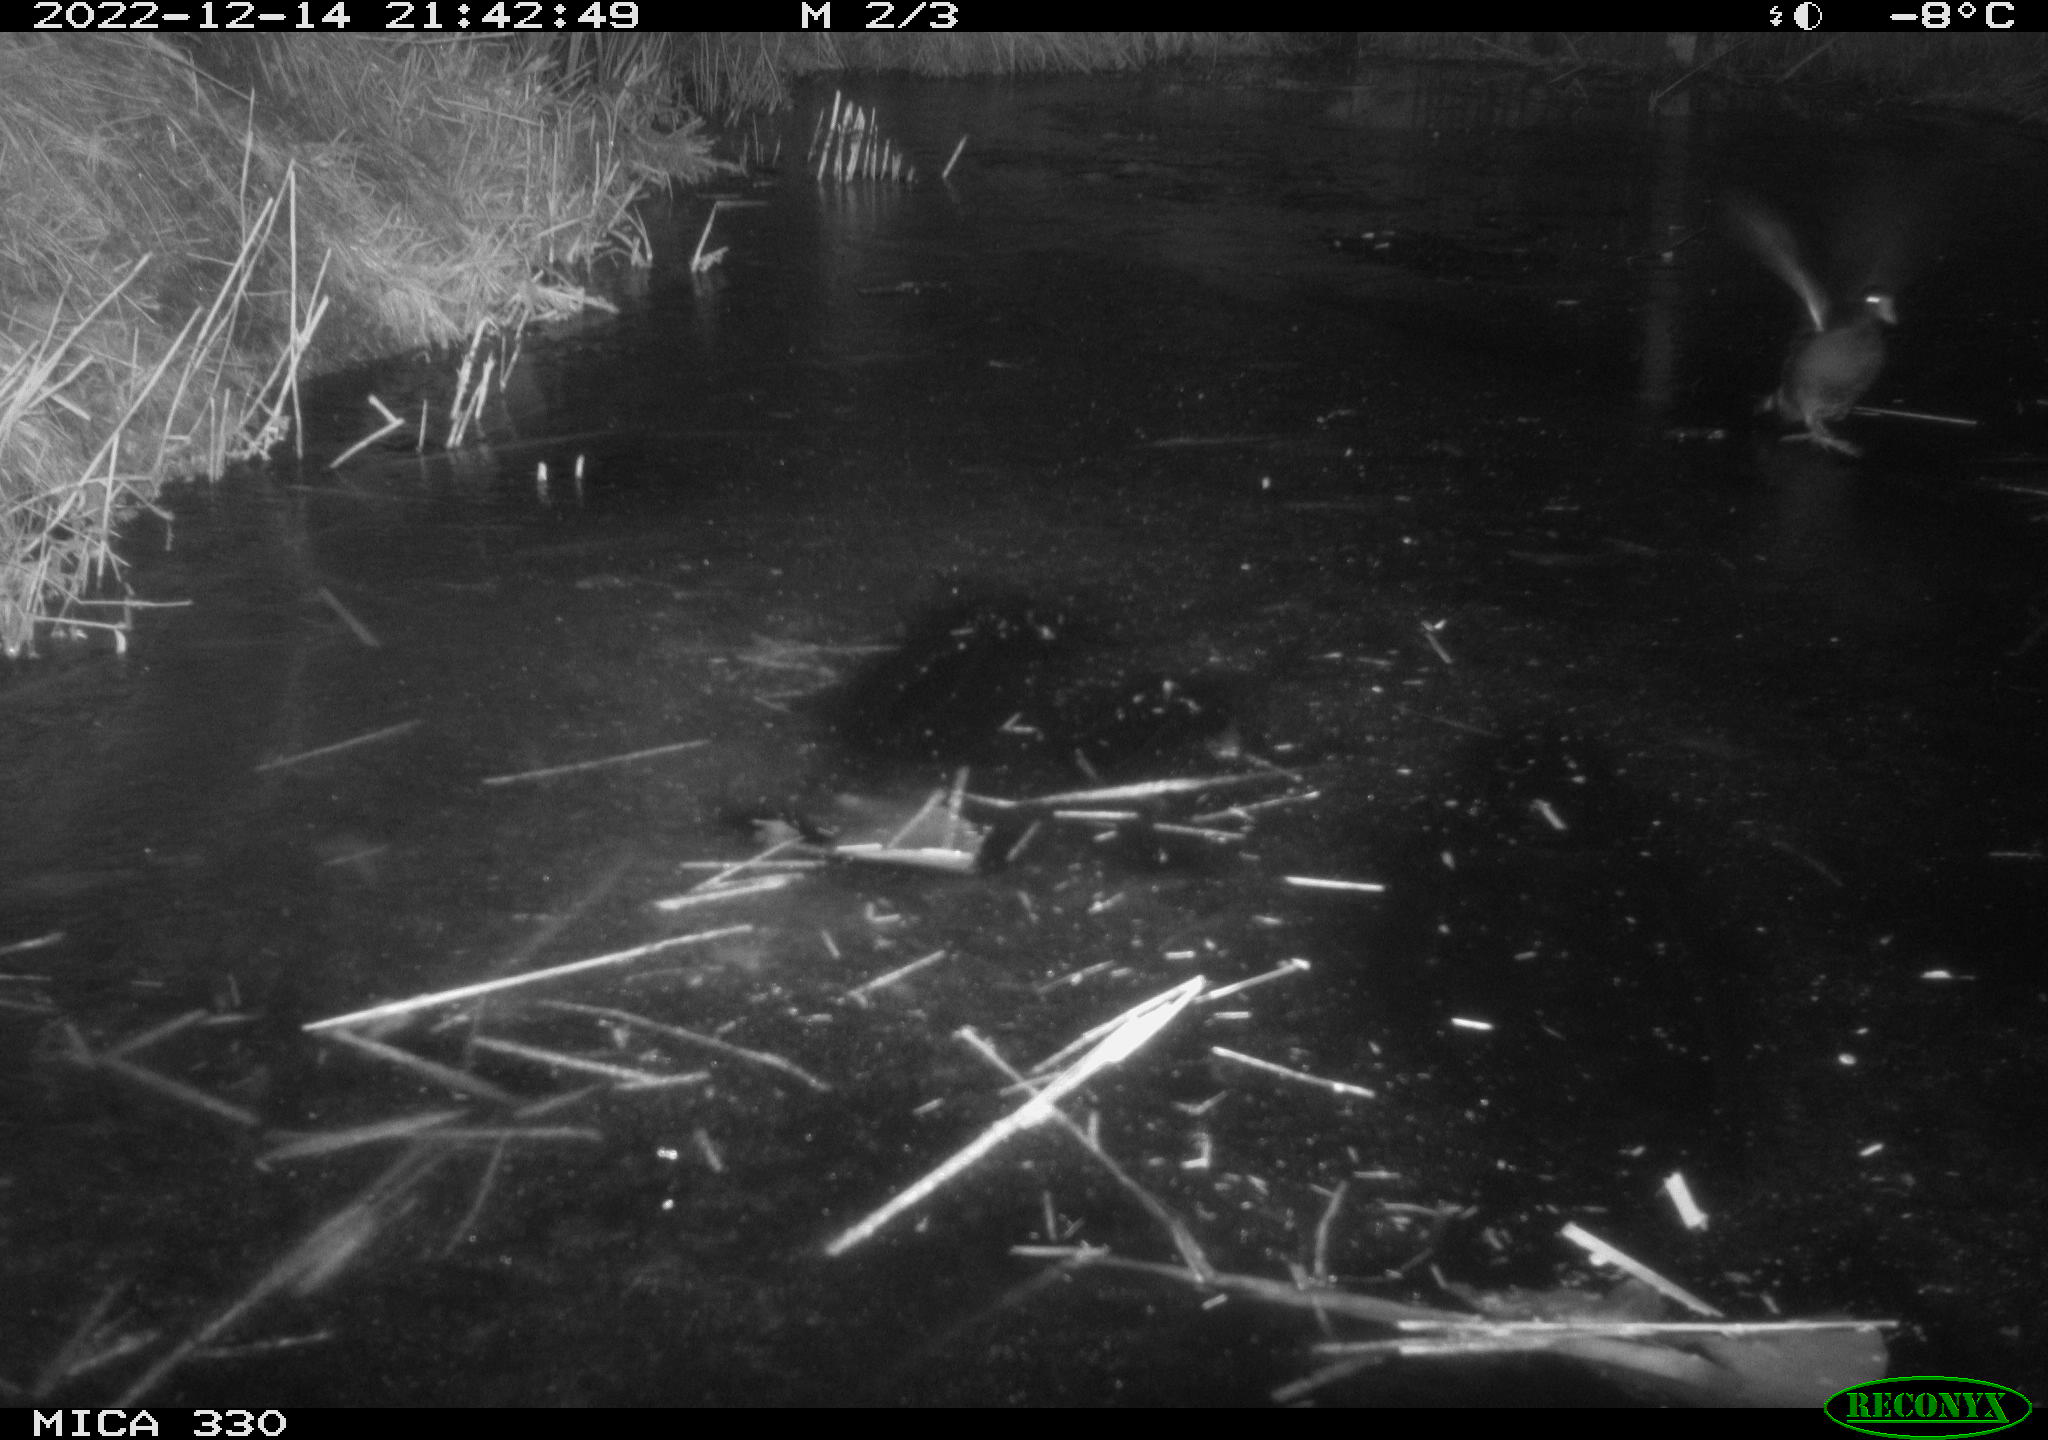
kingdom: Animalia
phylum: Chordata
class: Aves
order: Gruiformes
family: Rallidae
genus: Gallinula
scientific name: Gallinula chloropus
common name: Common moorhen
